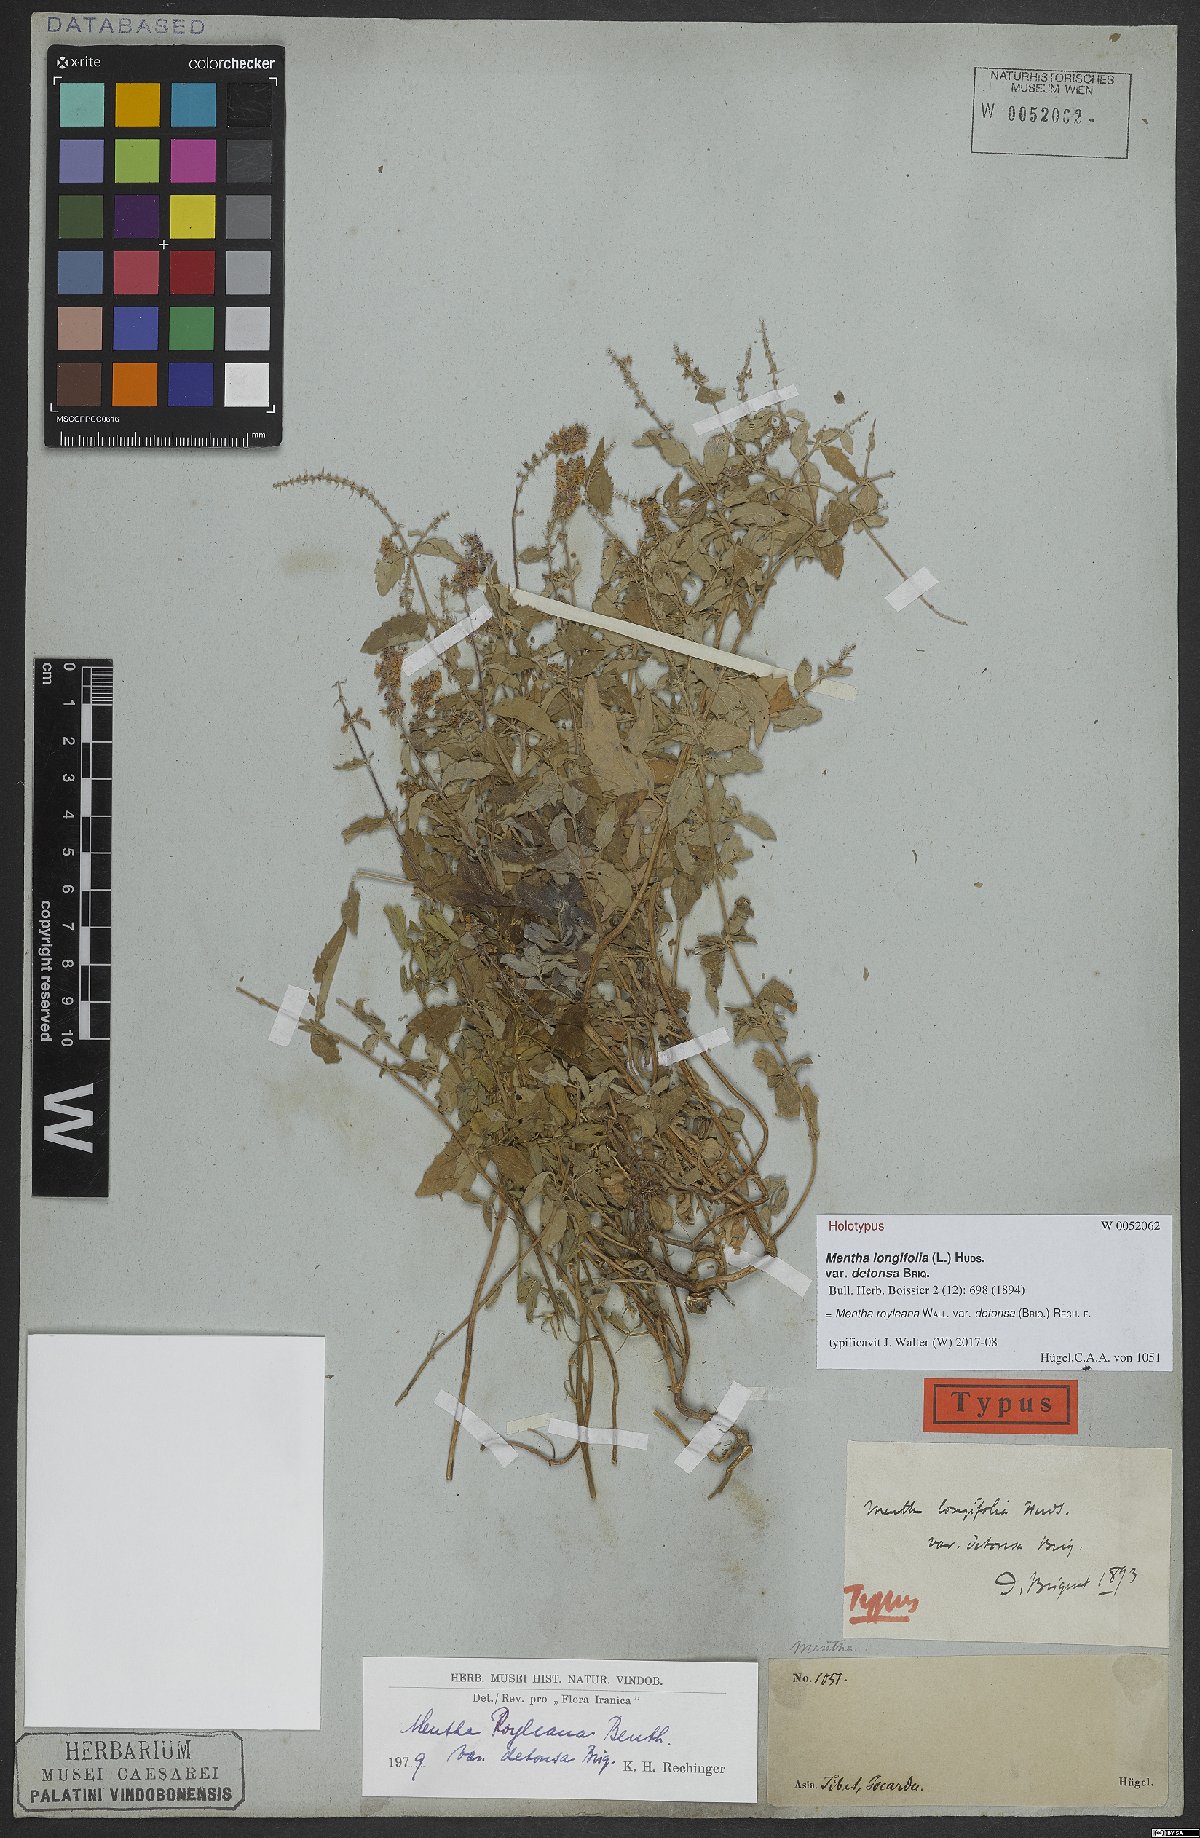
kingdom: Plantae
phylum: Tracheophyta
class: Magnoliopsida
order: Lamiales
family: Lamiaceae
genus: Mentha
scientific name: Mentha royleana
